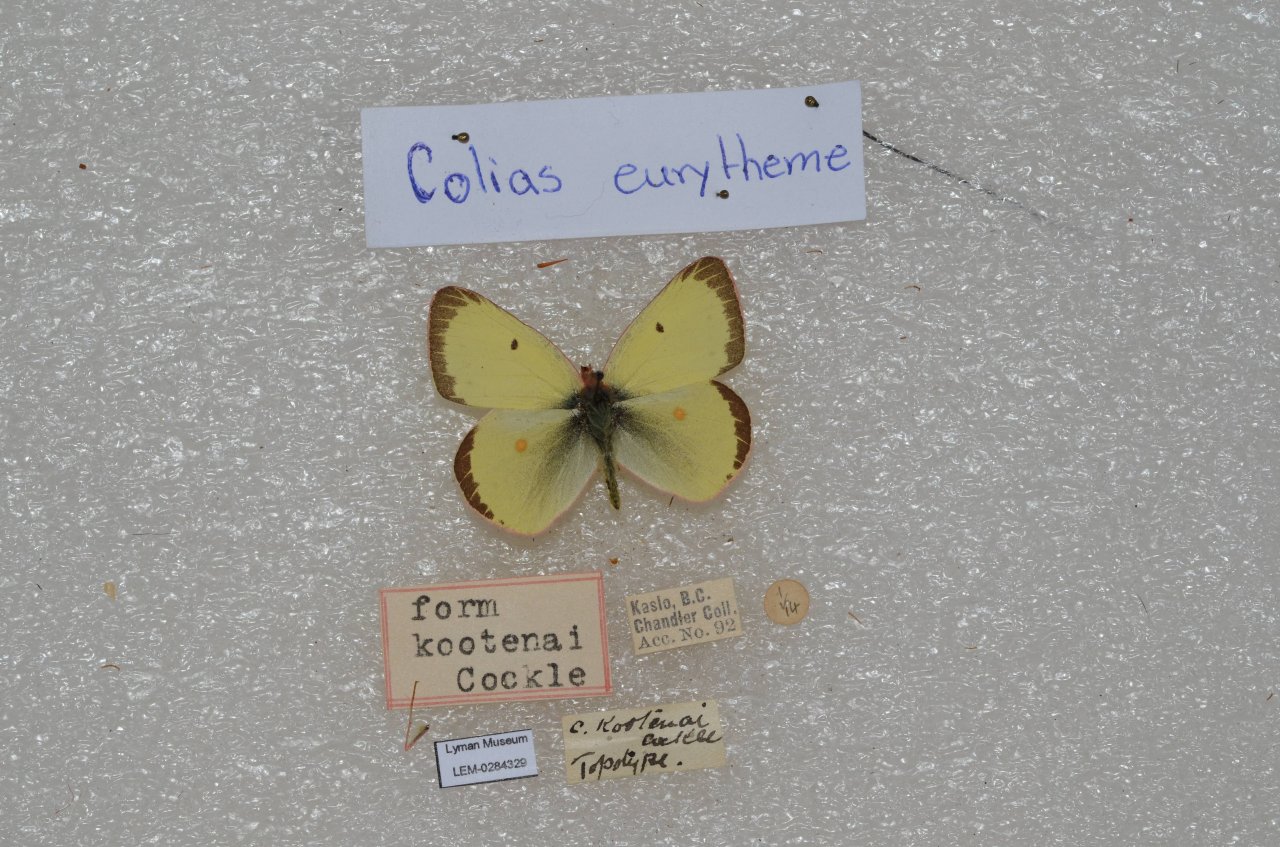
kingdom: Animalia
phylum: Arthropoda
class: Insecta
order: Lepidoptera
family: Pieridae
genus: Colias
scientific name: Colias eurytheme
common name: Orange Sulphur
